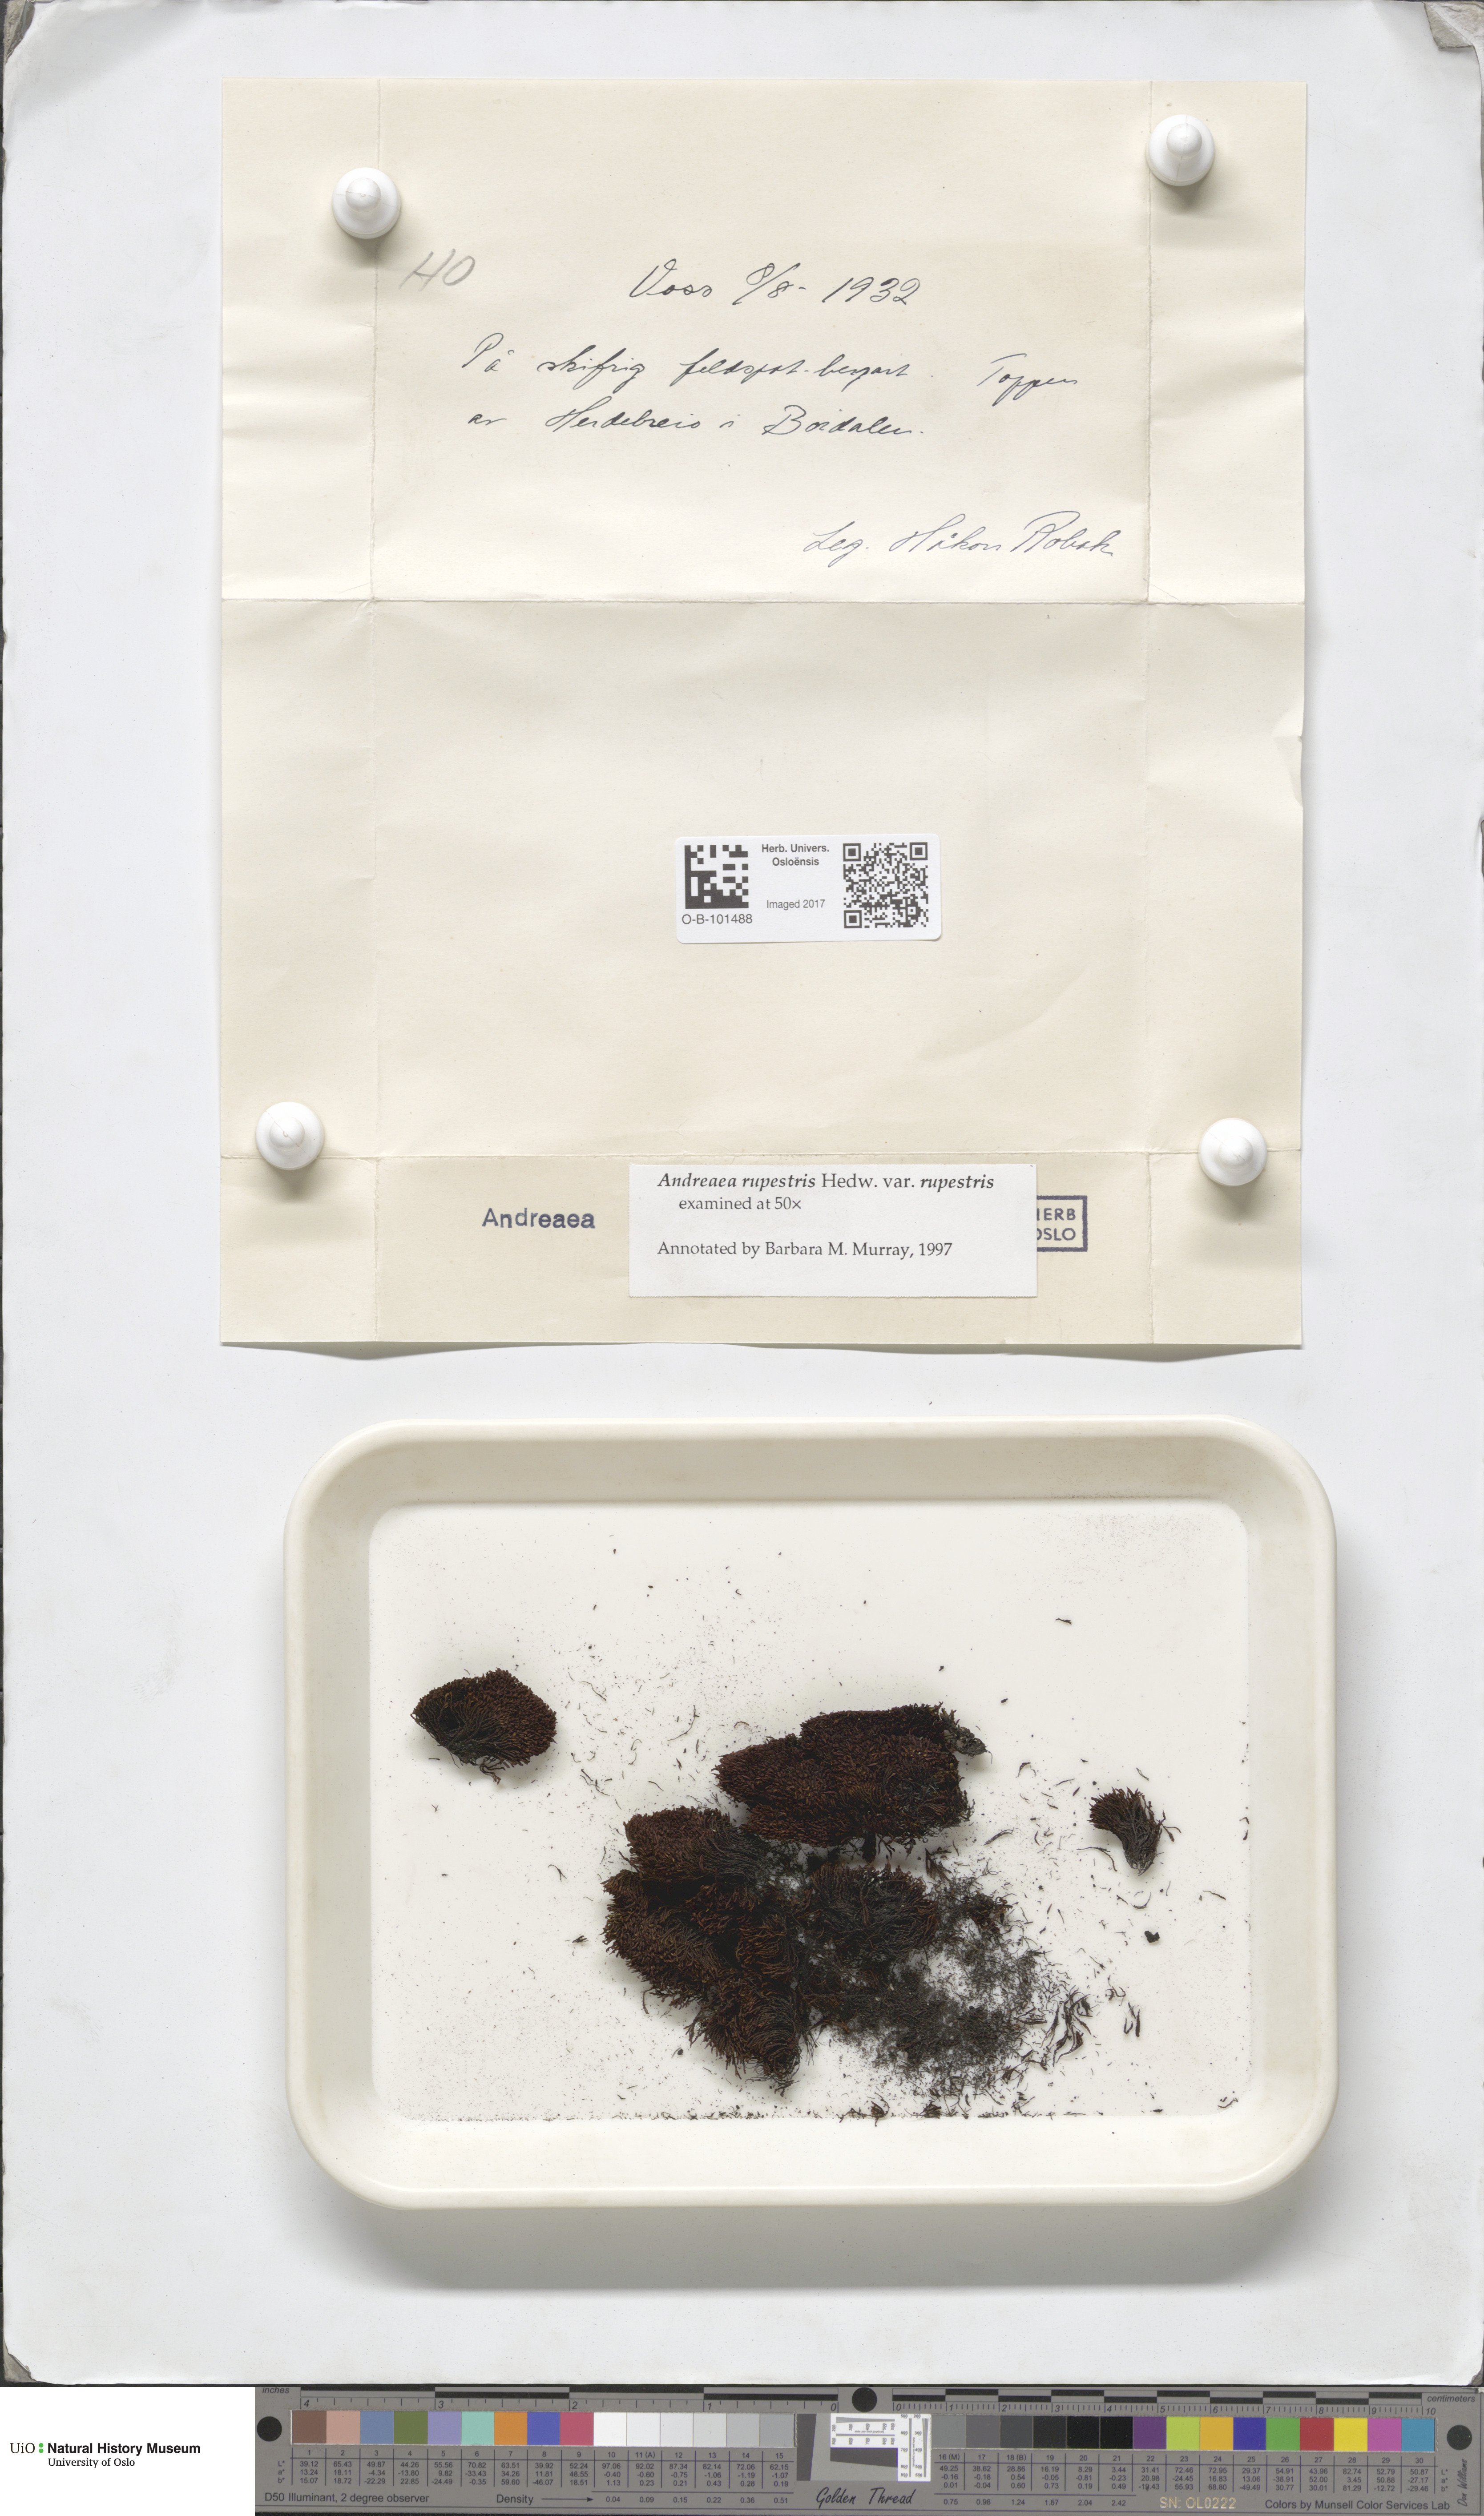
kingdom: Plantae
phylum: Bryophyta
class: Andreaeopsida
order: Andreaeales
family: Andreaeaceae
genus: Andreaea
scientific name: Andreaea rupestris
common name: Black rock moss
